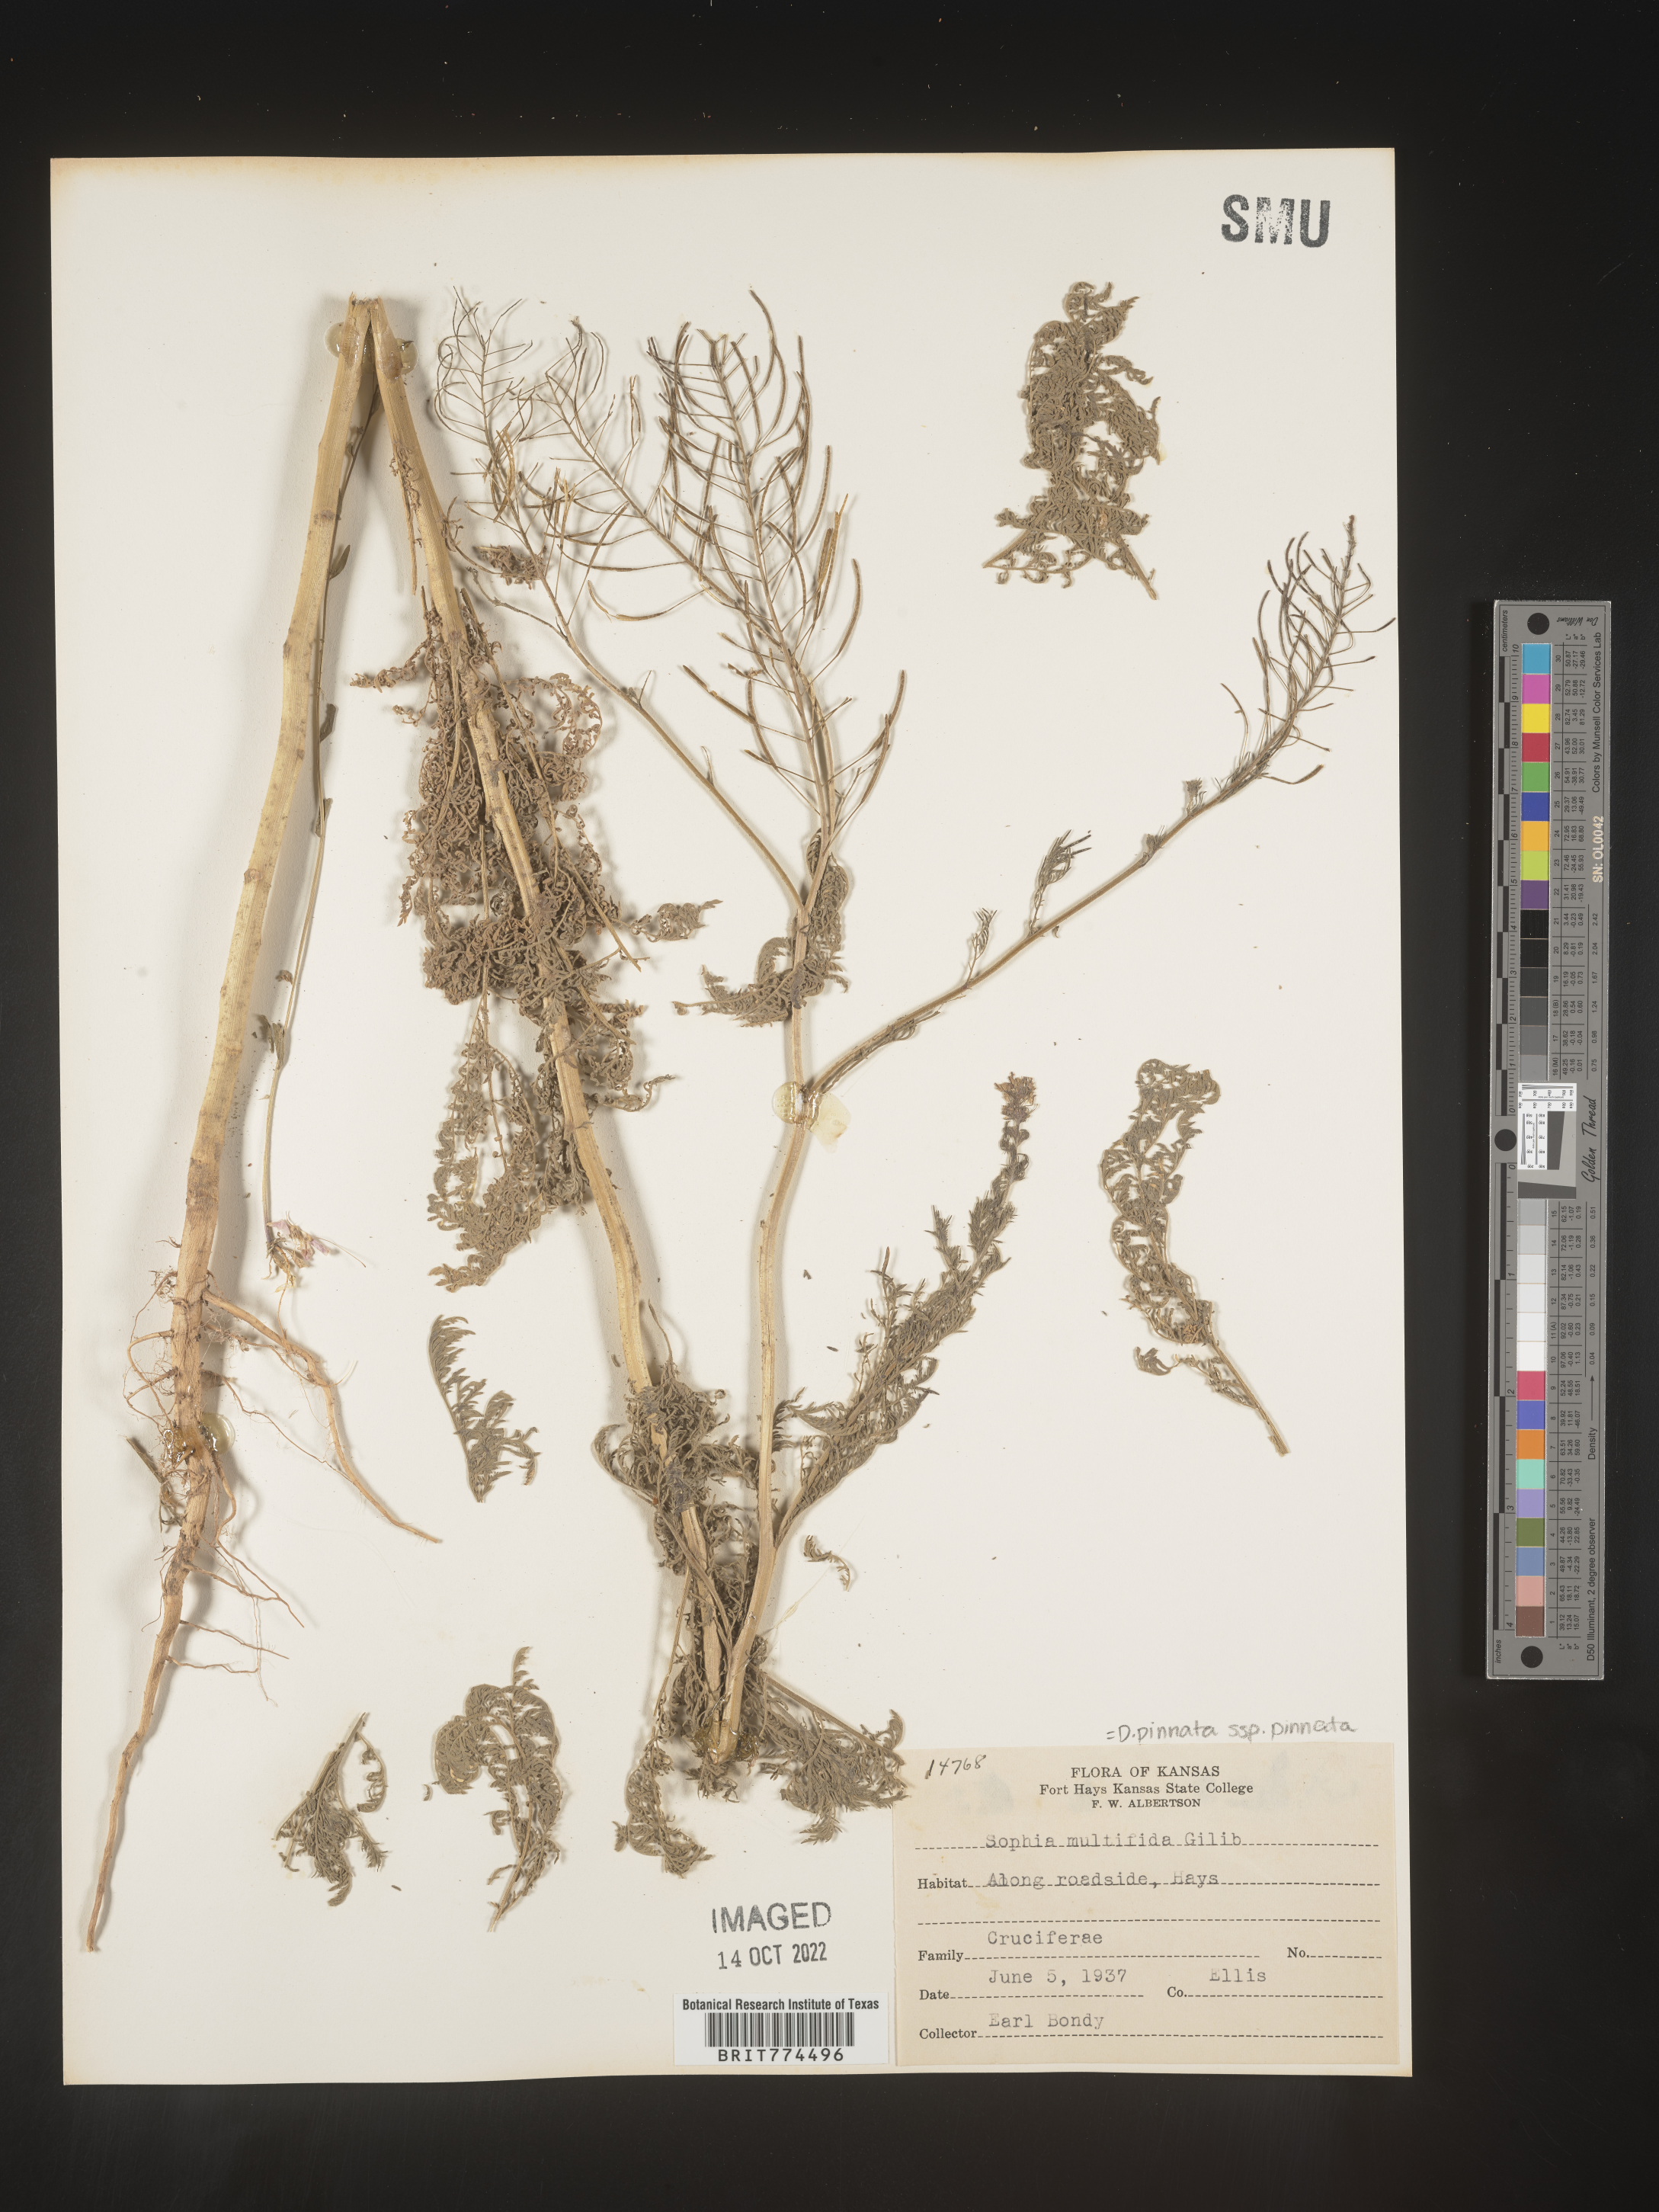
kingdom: Plantae
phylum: Tracheophyta
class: Magnoliopsida
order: Brassicales
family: Brassicaceae
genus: Descurainia
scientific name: Descurainia pinnata
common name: Western tansy mustard
